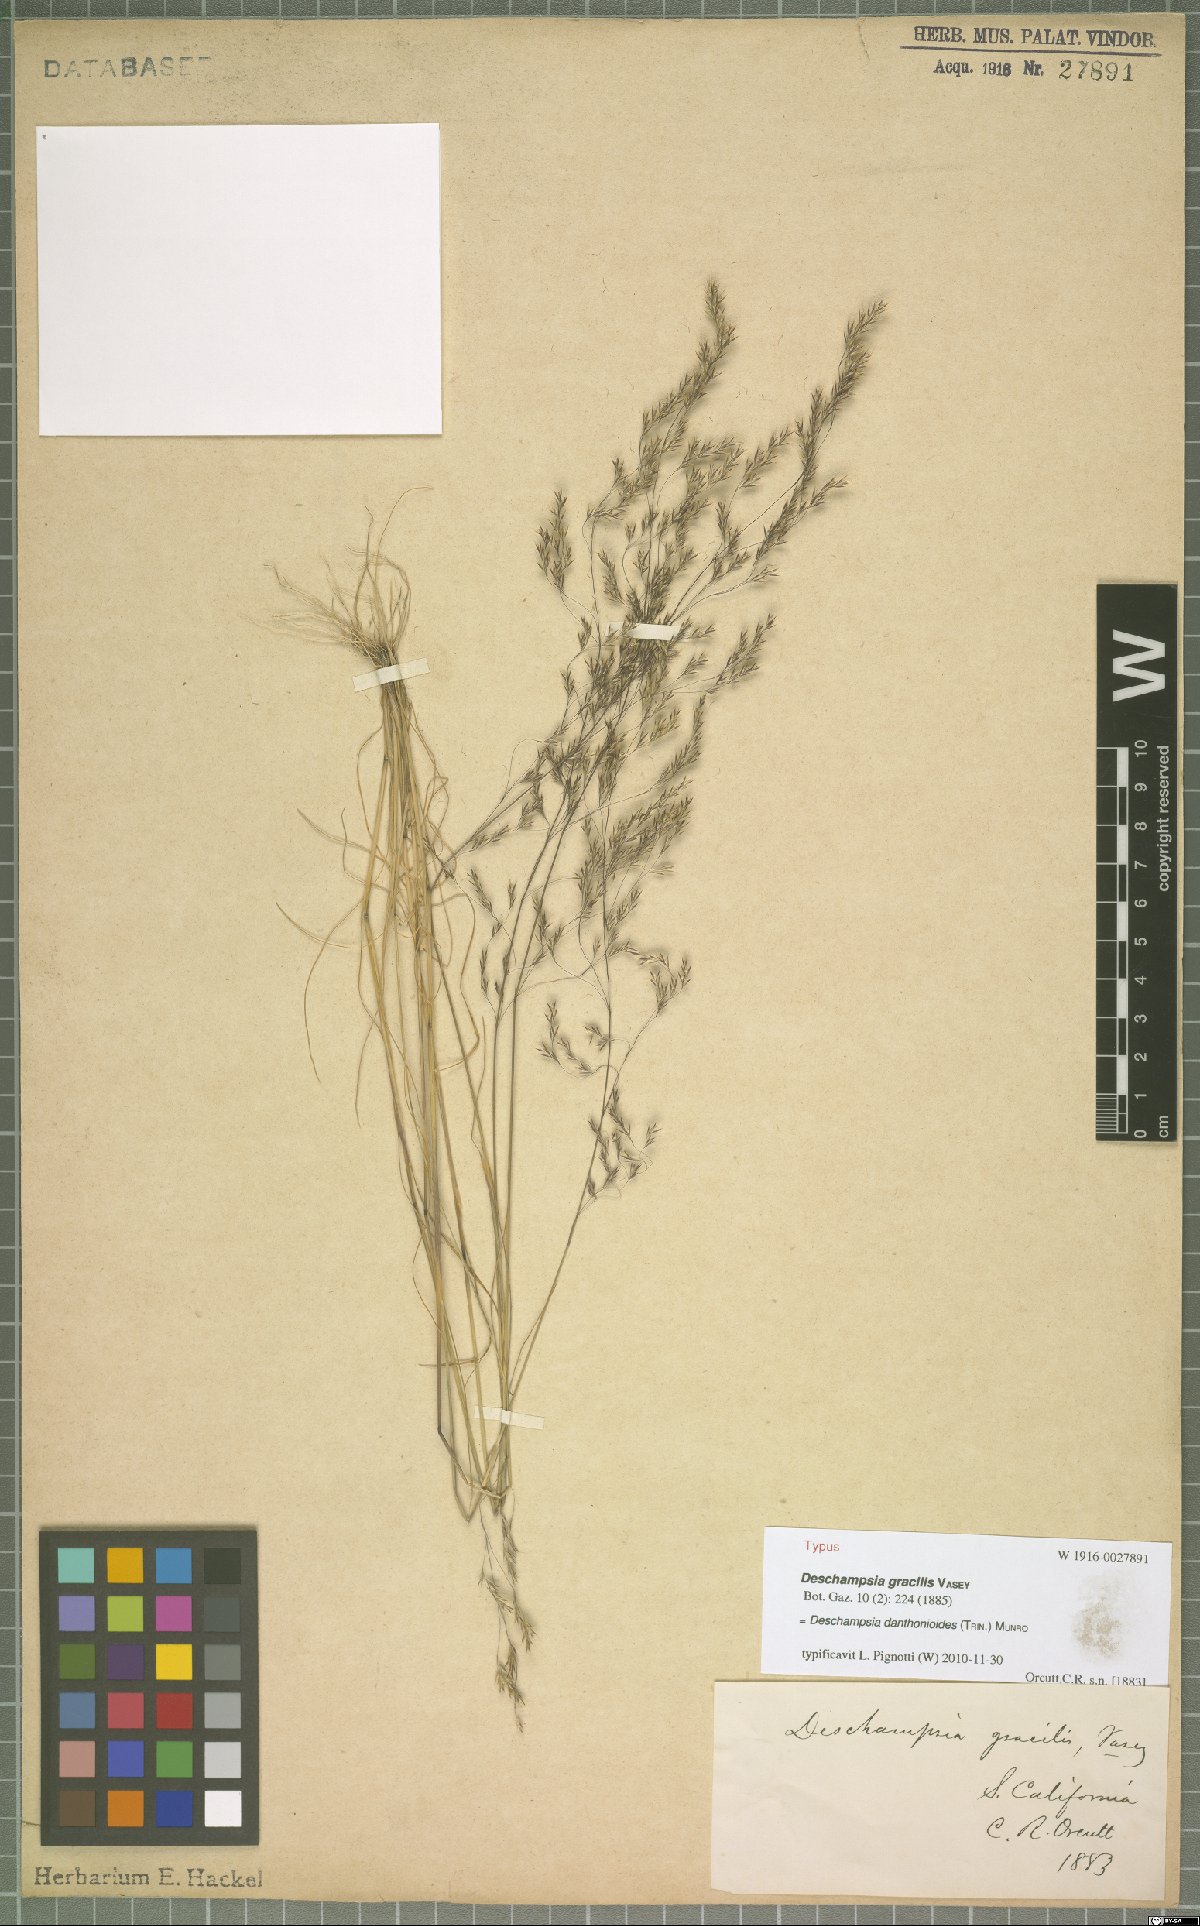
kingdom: Plantae
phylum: Tracheophyta
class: Liliopsida
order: Poales
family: Poaceae
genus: Deschampsia
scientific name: Deschampsia danthonioides
